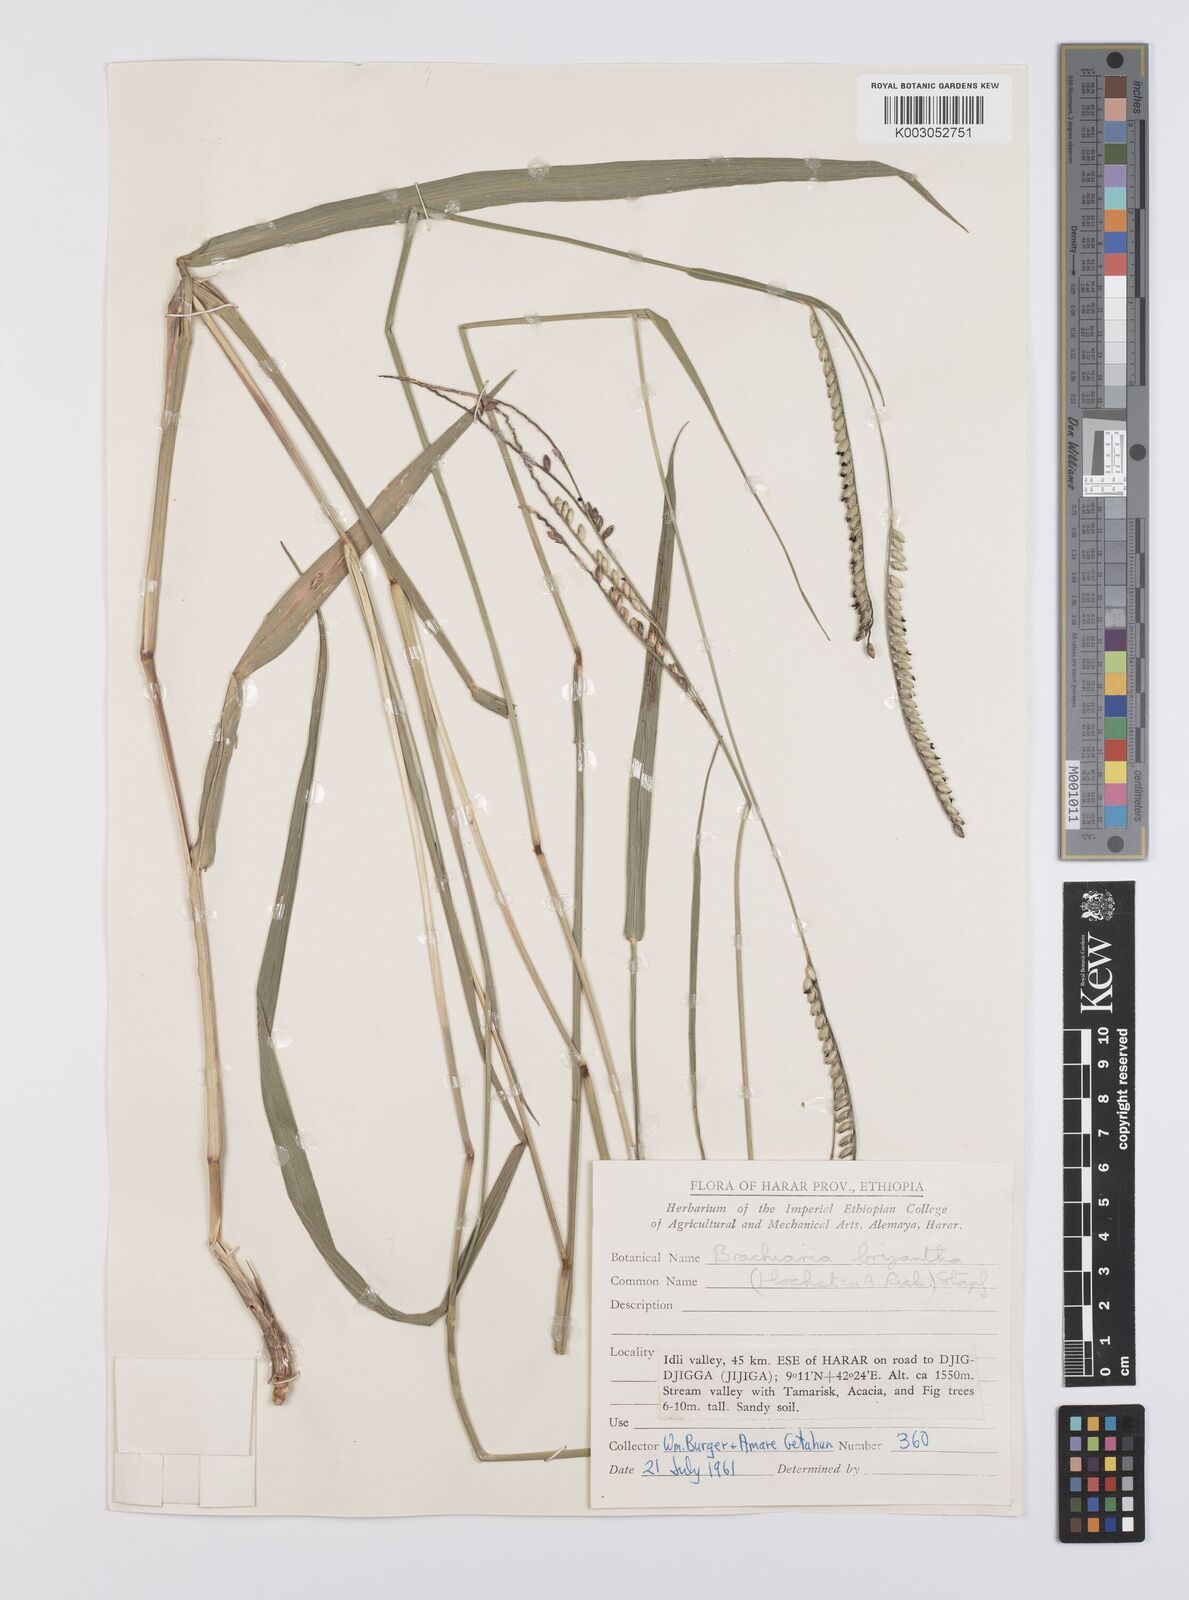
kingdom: Plantae
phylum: Tracheophyta
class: Liliopsida
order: Poales
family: Poaceae
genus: Urochloa
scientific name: Urochloa brizantha
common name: Palisade signalgrass
